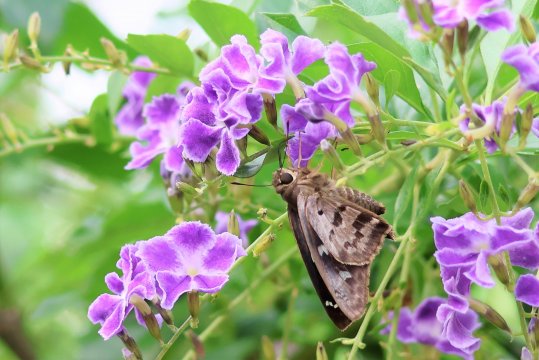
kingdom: Animalia
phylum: Arthropoda
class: Insecta
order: Lepidoptera
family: Hesperiidae
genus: Polygonus
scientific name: Polygonus leo
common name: Hammock Skipper
